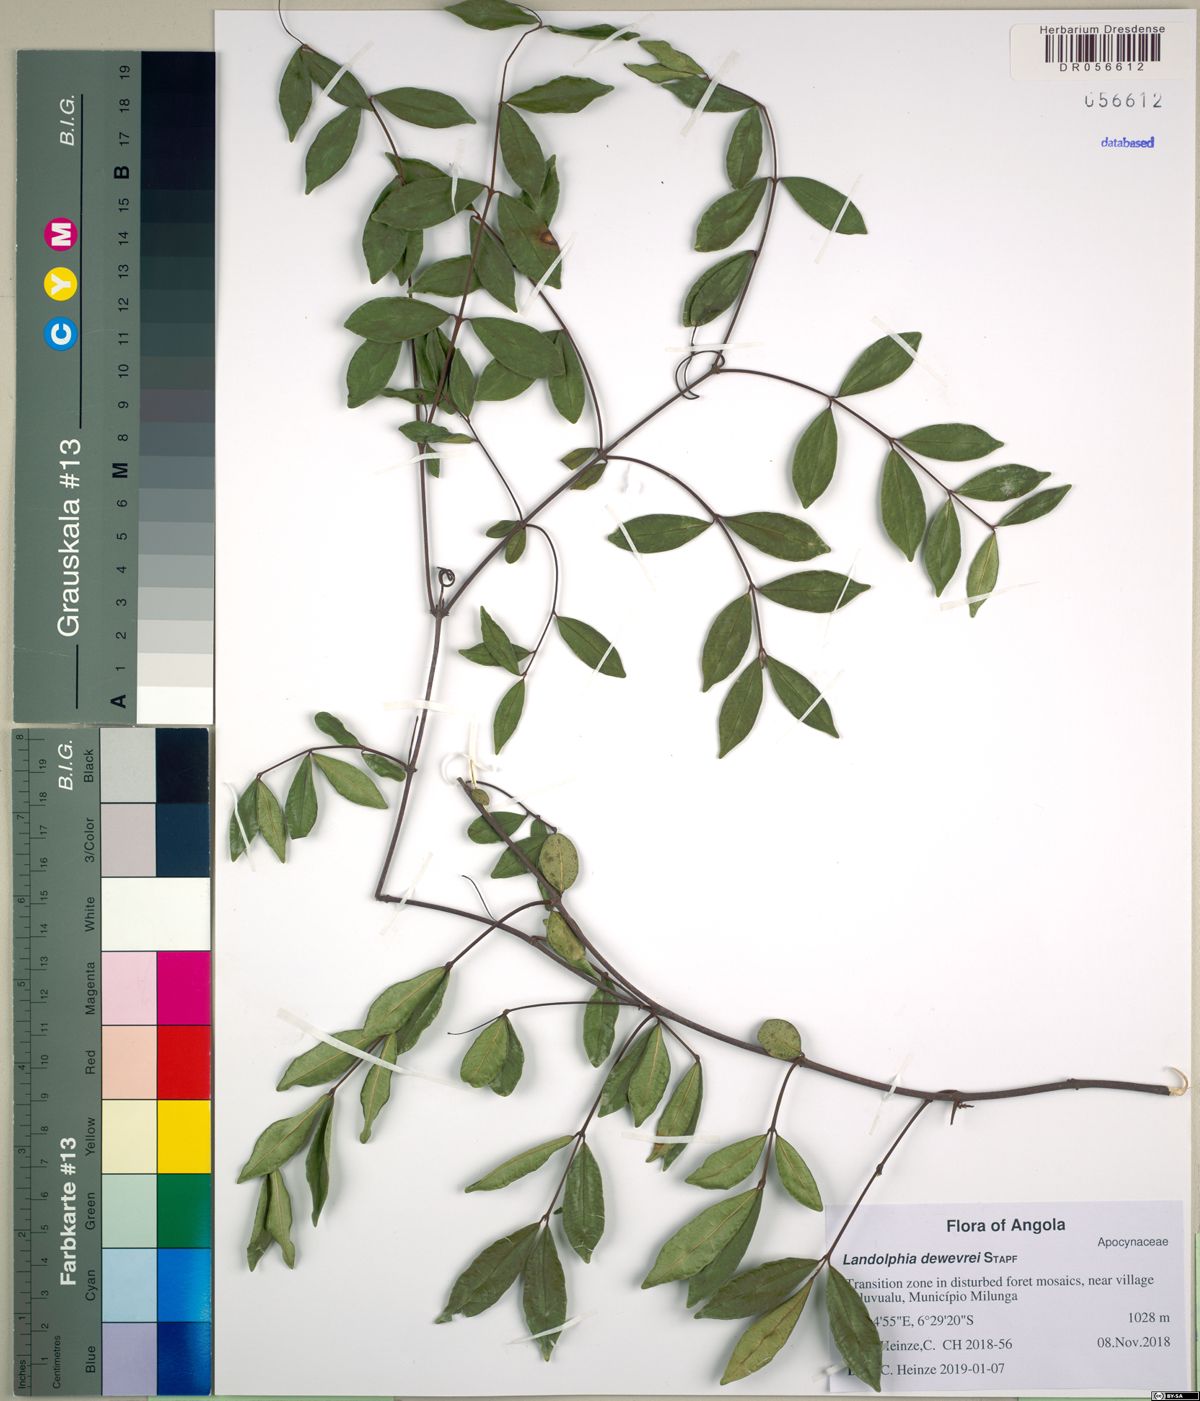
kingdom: Plantae
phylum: Tracheophyta
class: Magnoliopsida
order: Gentianales
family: Apocynaceae
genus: Landolphia
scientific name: Landolphia dewevrei
